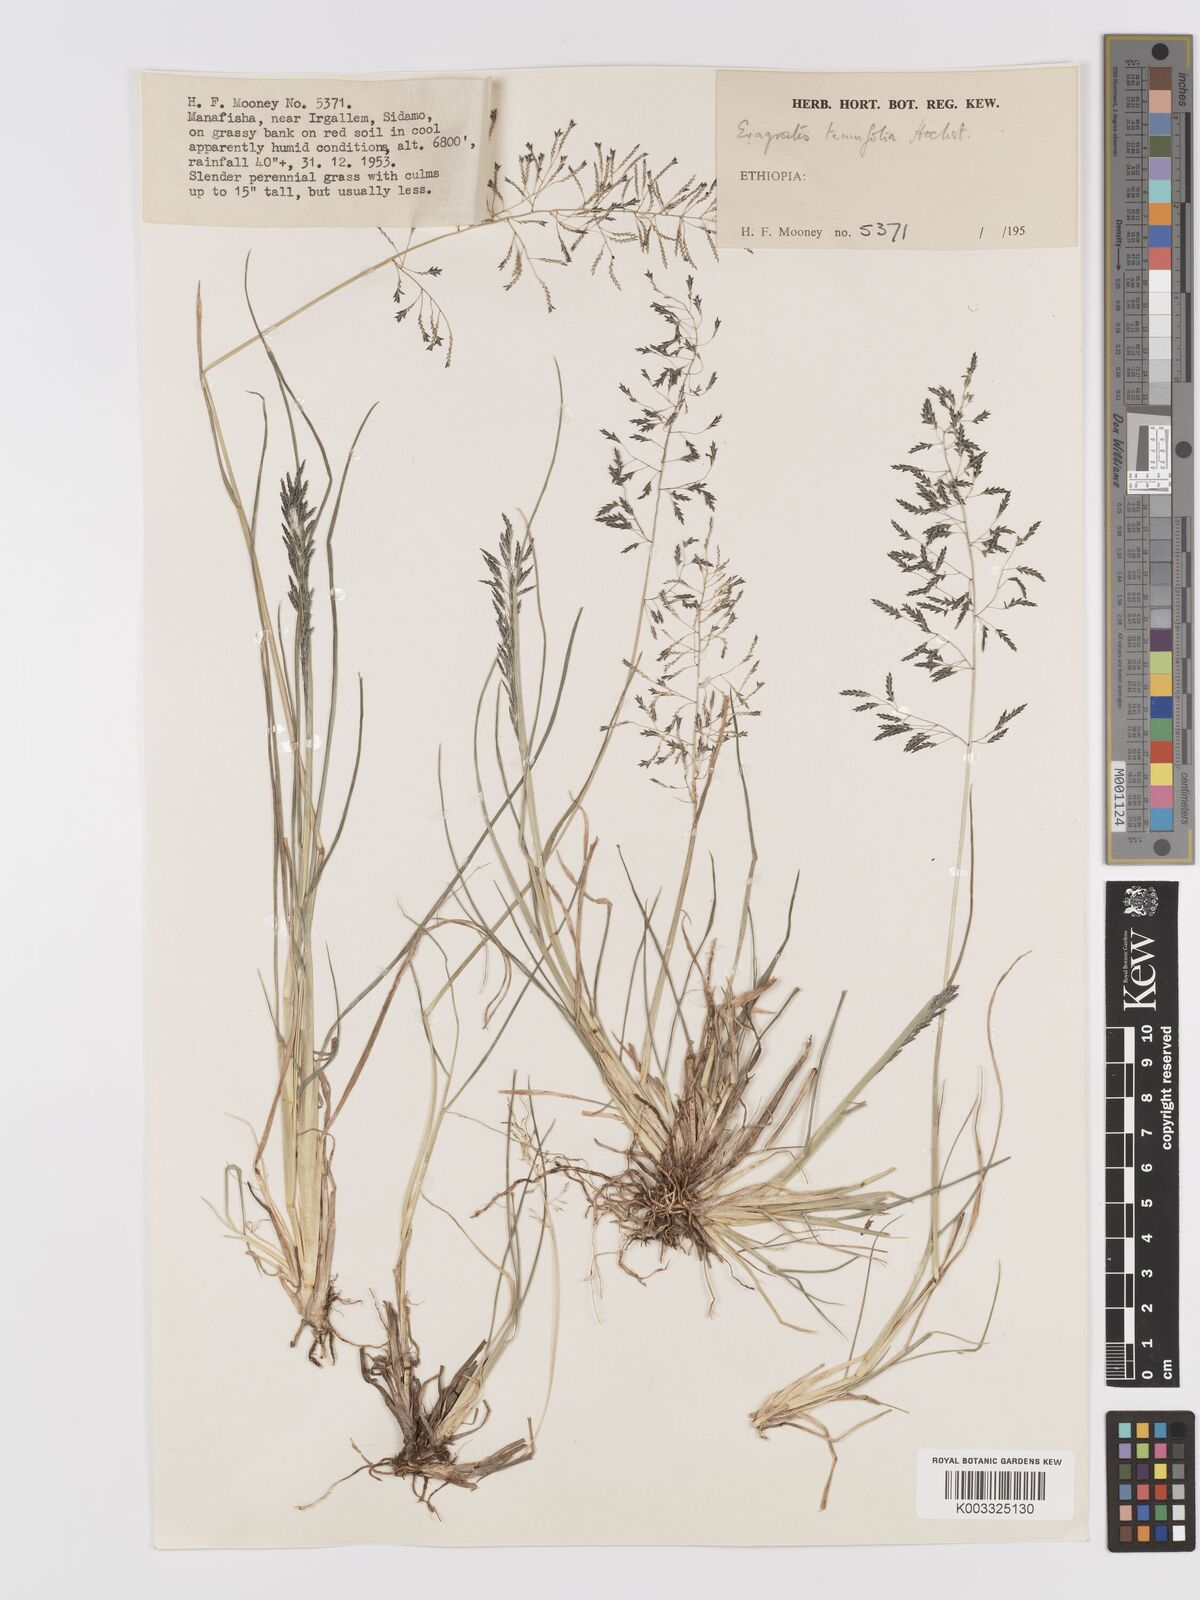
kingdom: Plantae
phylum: Tracheophyta
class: Liliopsida
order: Poales
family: Poaceae
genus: Eragrostis
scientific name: Eragrostis tenuifolia
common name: Elastic grass
